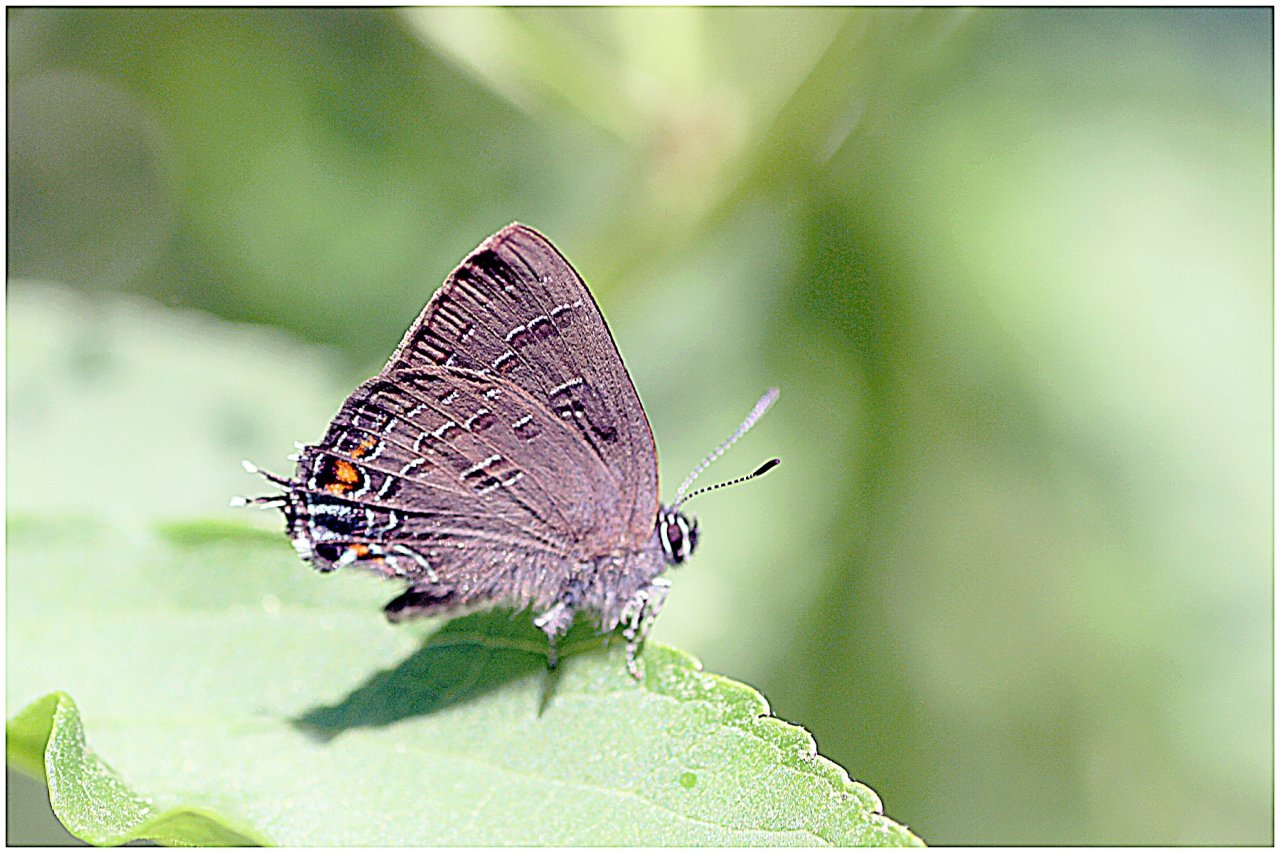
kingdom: Animalia
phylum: Arthropoda
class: Insecta
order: Lepidoptera
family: Lycaenidae
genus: Satyrium
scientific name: Satyrium calanus
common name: Banded Hairstreak
